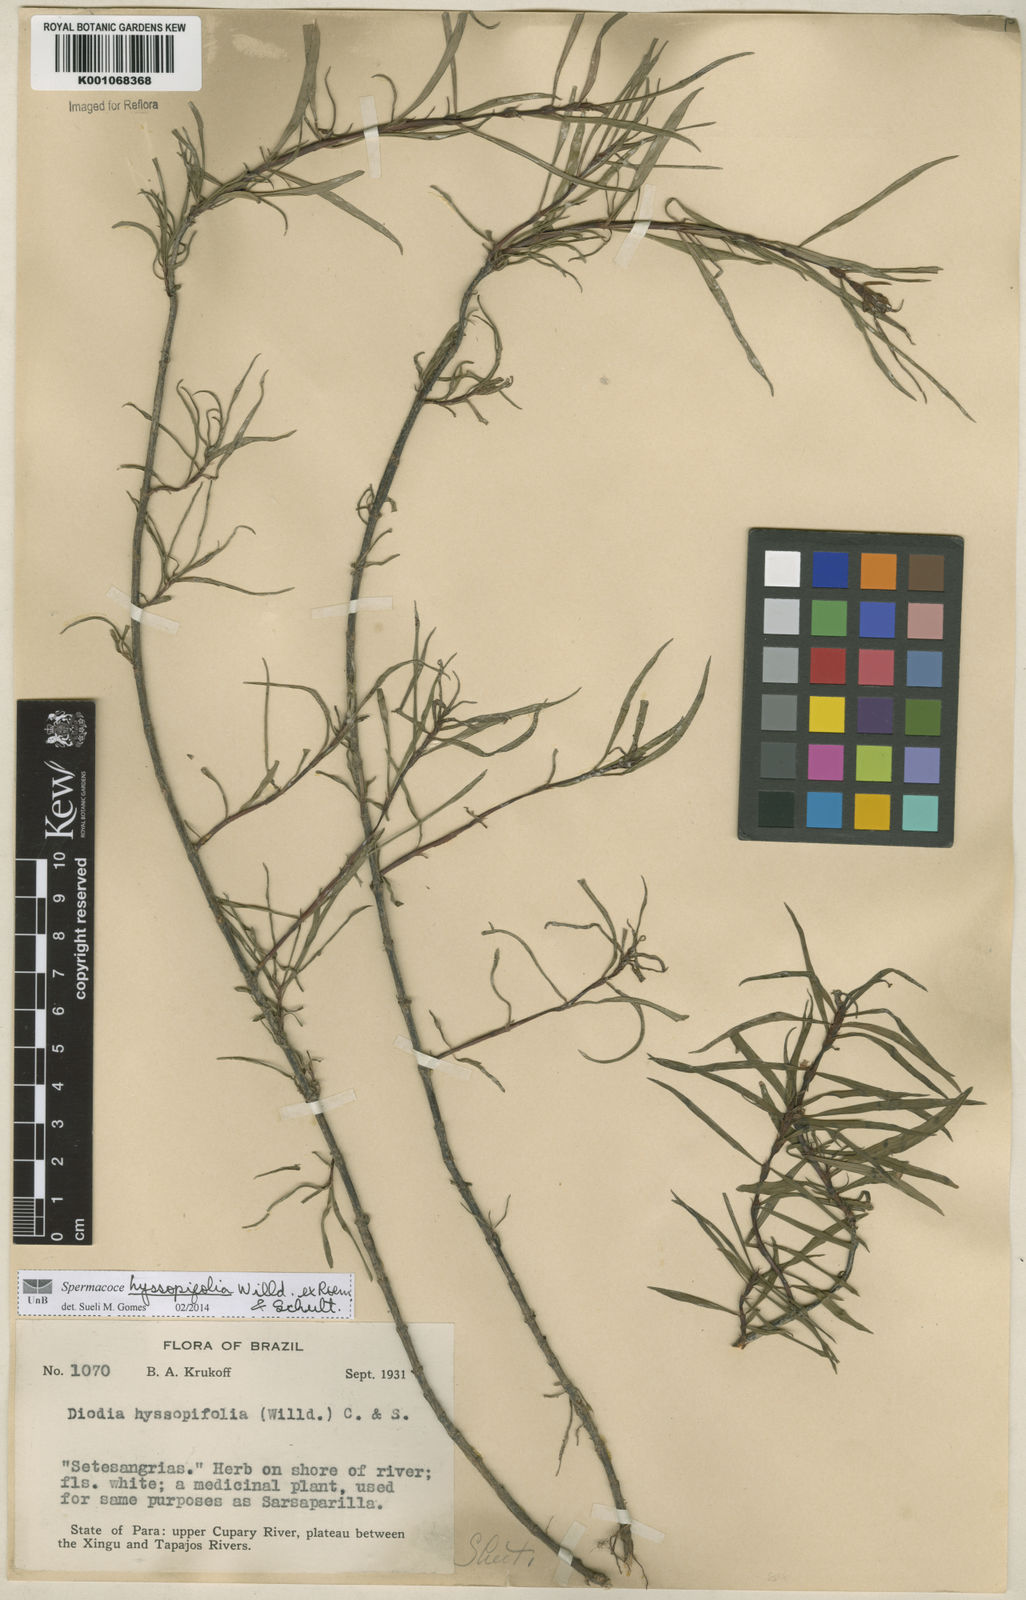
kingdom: Plantae
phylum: Tracheophyta
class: Magnoliopsida
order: Gentianales
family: Rubiaceae
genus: Spermacoce
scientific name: Spermacoce
